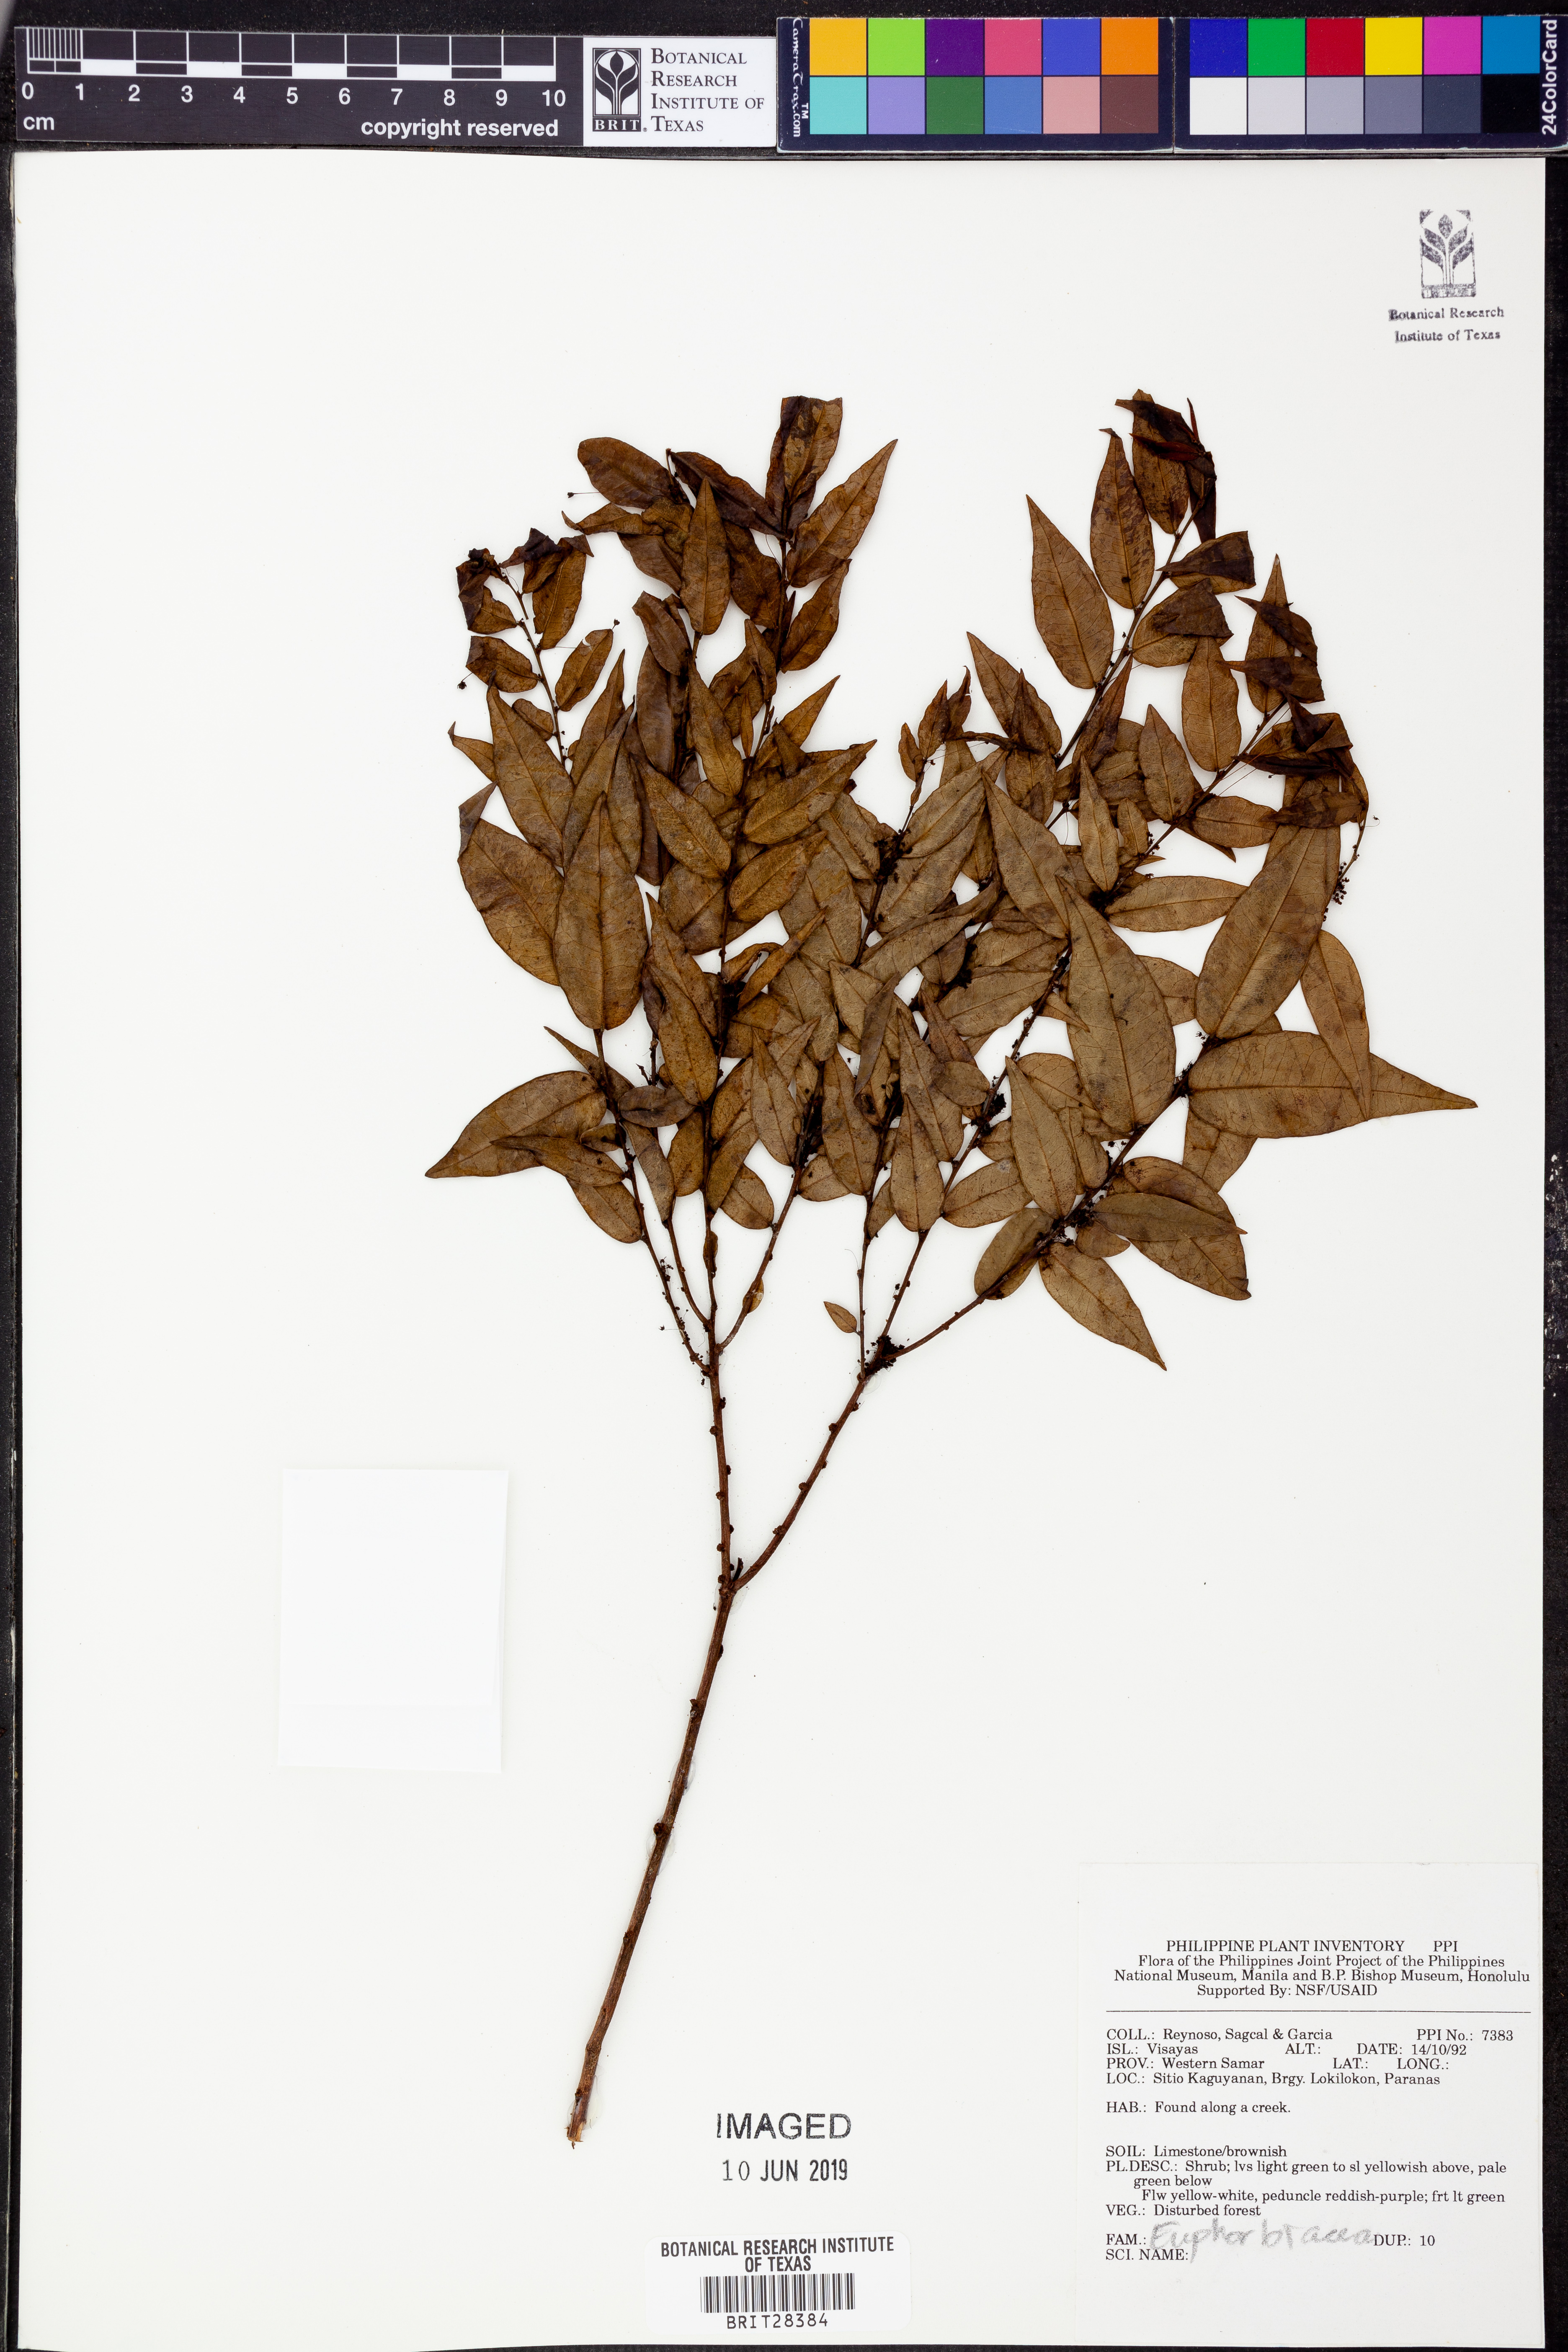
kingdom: Plantae
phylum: Tracheophyta
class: Magnoliopsida
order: Malpighiales
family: Euphorbiaceae
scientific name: Euphorbiaceae
